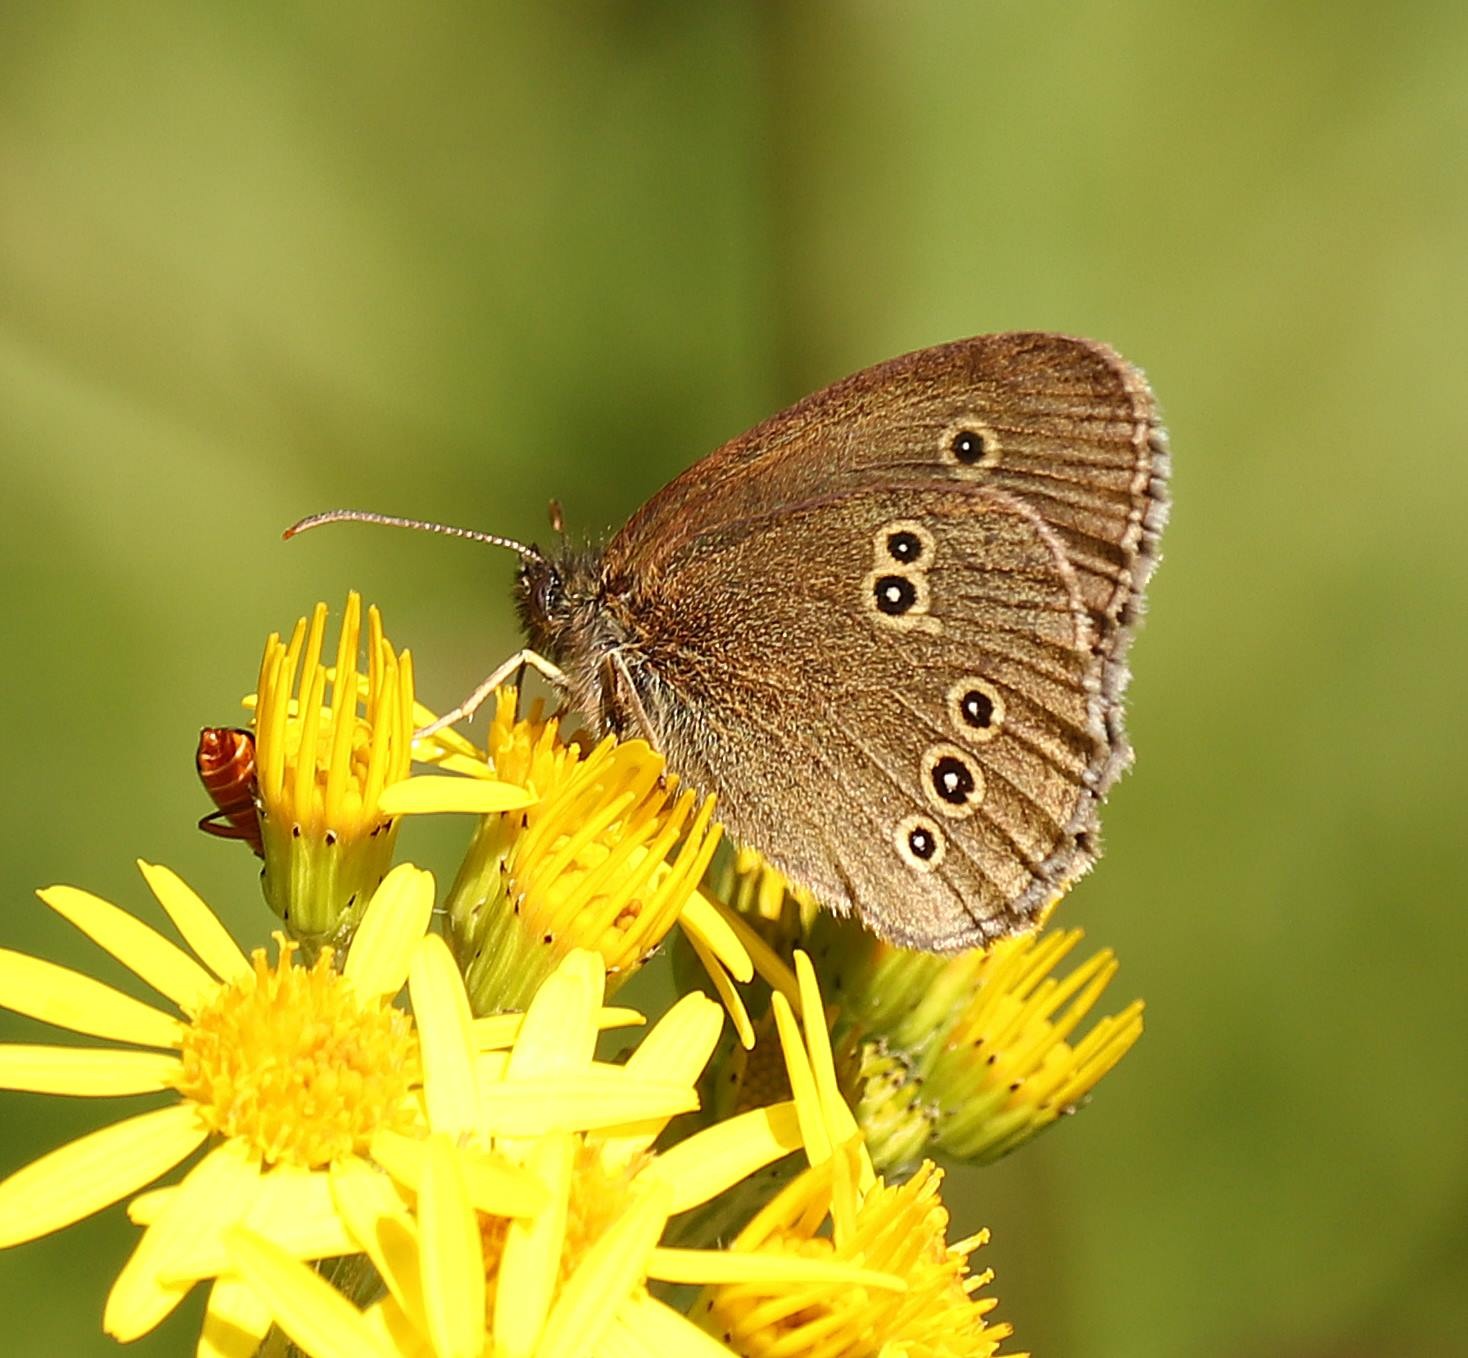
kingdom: Animalia
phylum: Arthropoda
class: Insecta
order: Lepidoptera
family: Nymphalidae
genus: Aphantopus
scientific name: Aphantopus hyperantus
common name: Engrandøje
